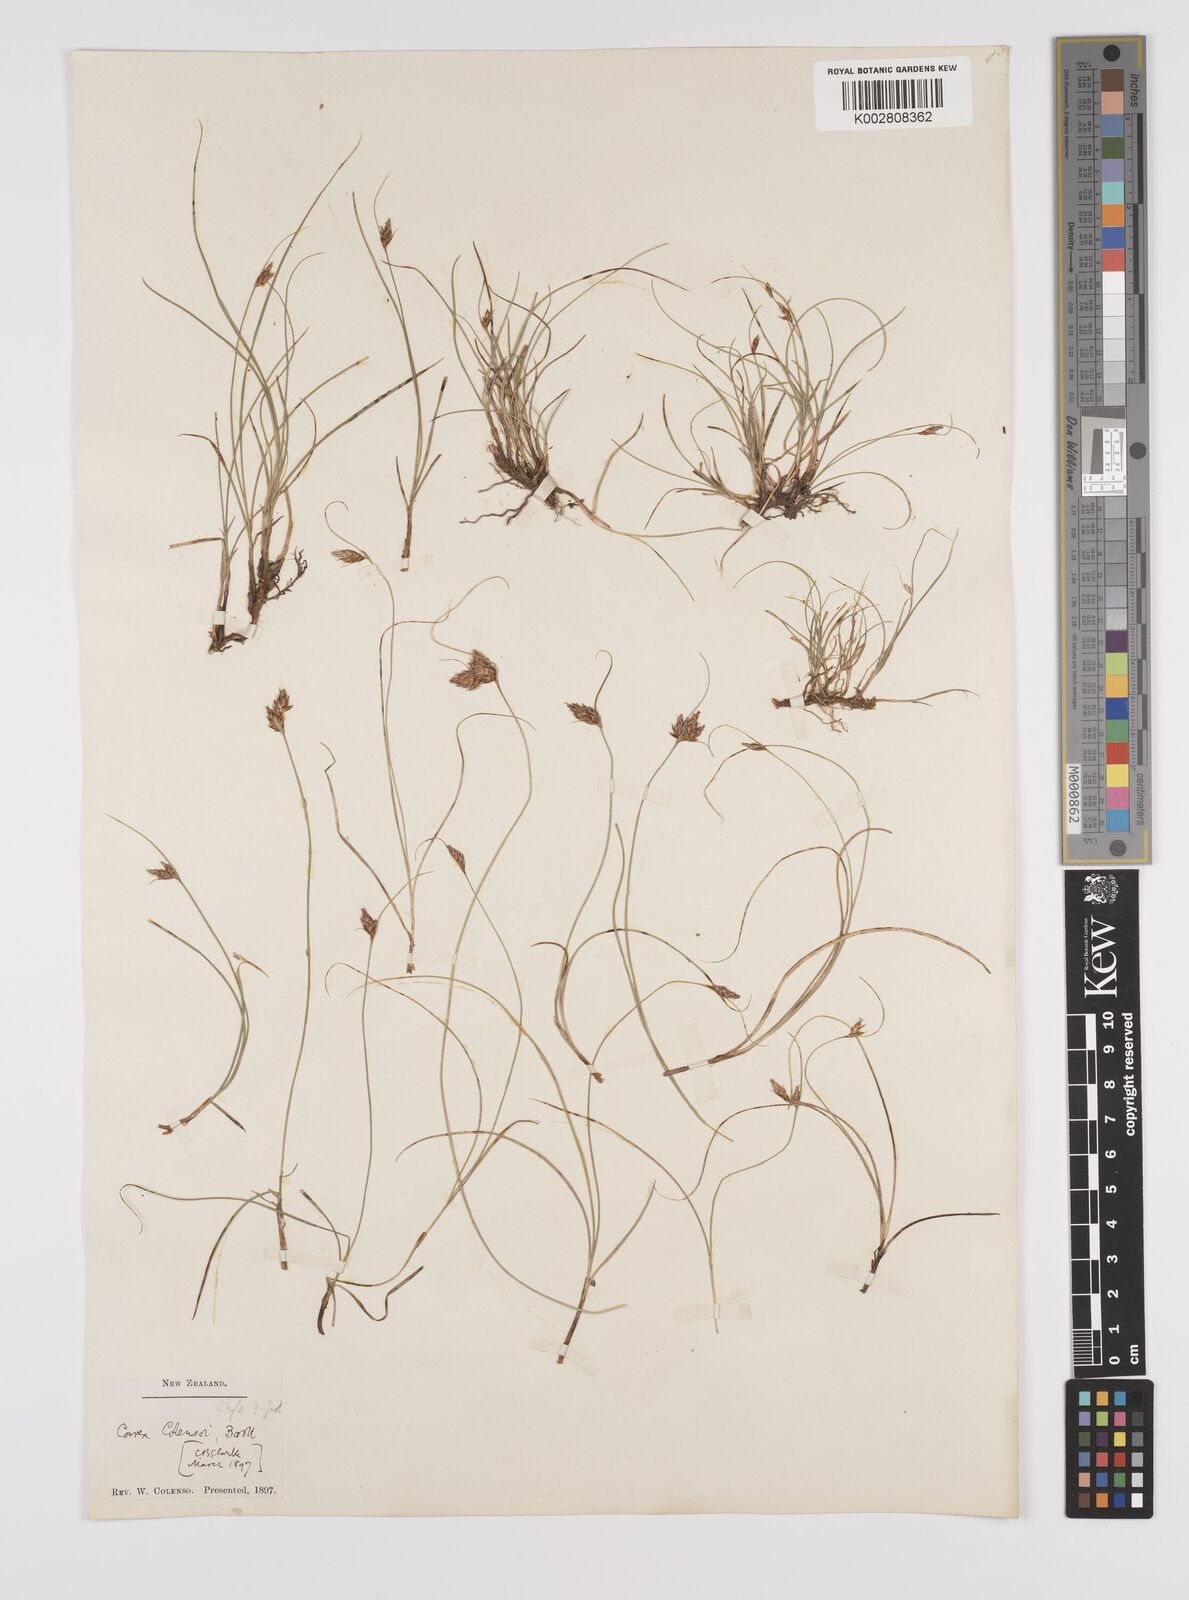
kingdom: Plantae
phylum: Tracheophyta
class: Liliopsida
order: Poales
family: Cyperaceae
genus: Carex
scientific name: Carex colensoi
